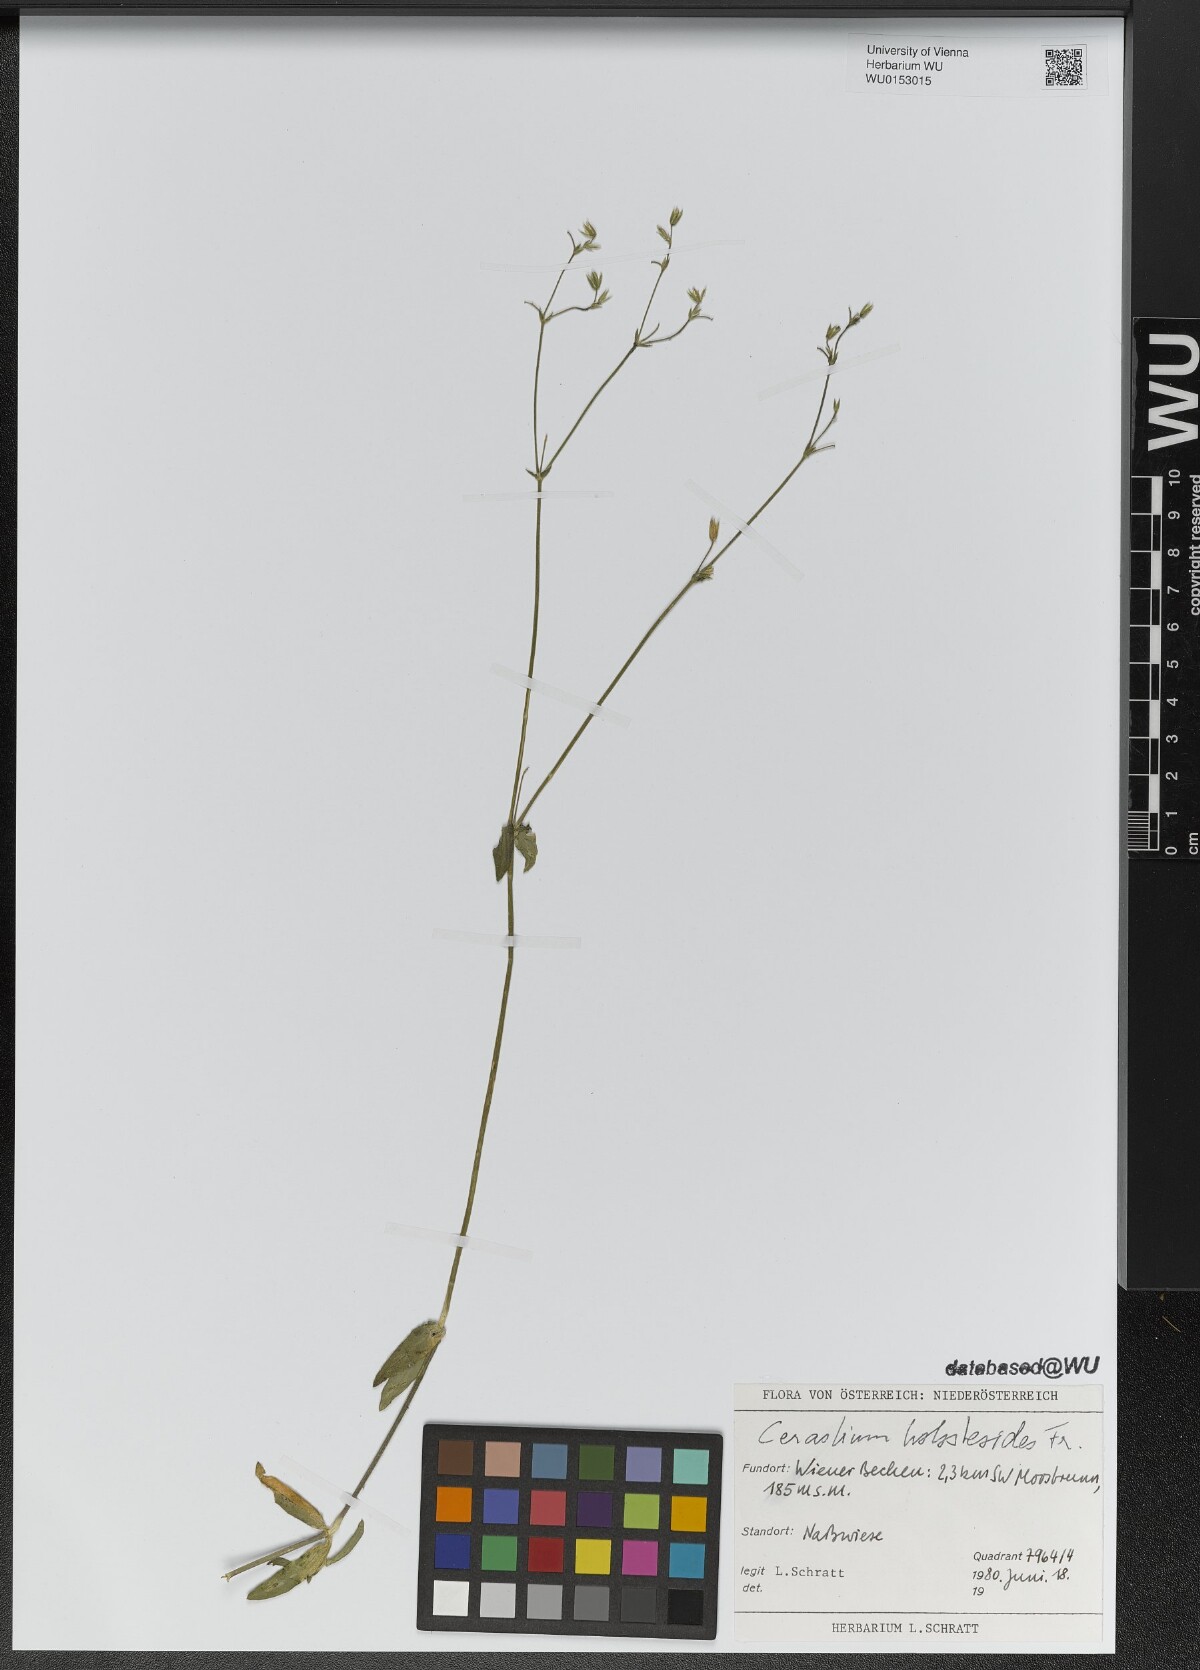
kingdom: Plantae
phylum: Tracheophyta
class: Magnoliopsida
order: Caryophyllales
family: Caryophyllaceae
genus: Cerastium
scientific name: Cerastium holosteoides
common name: Big chickweed
